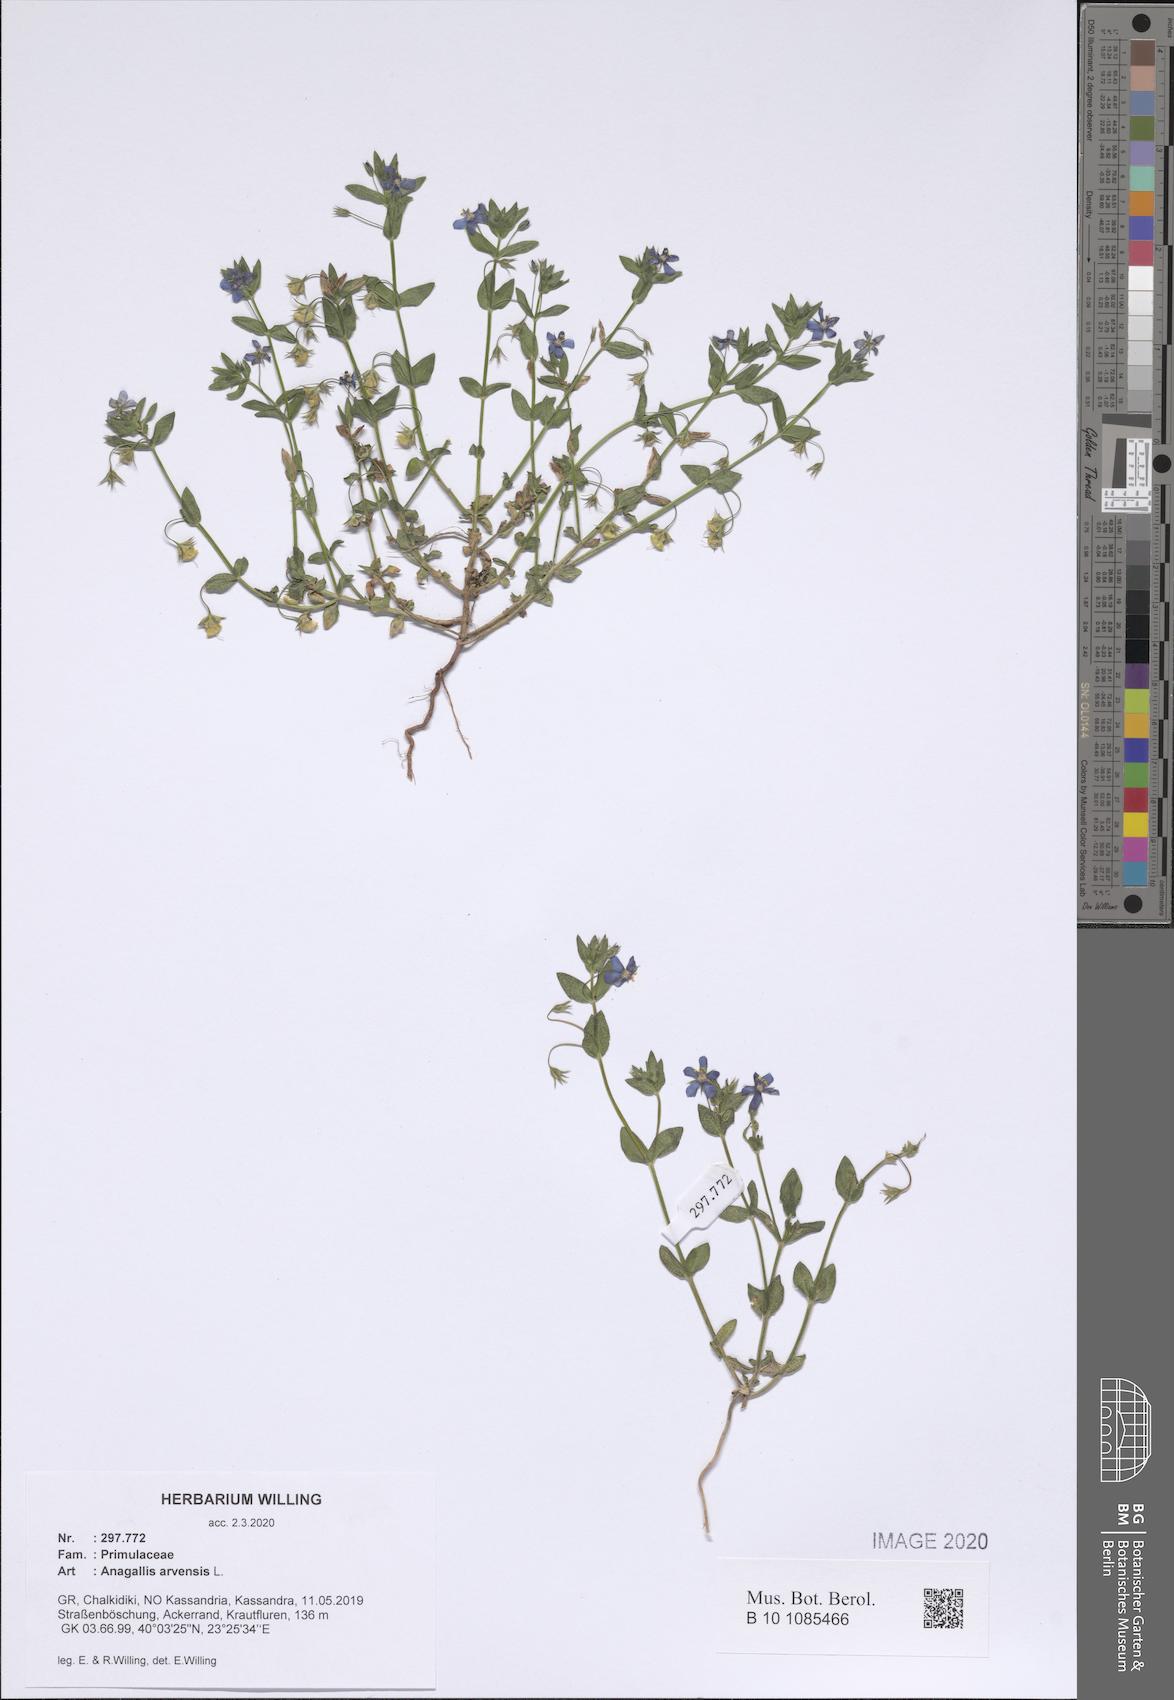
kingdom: Plantae
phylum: Tracheophyta
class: Magnoliopsida
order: Ericales
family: Primulaceae
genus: Lysimachia
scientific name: Lysimachia arvensis
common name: Scarlet pimpernel
